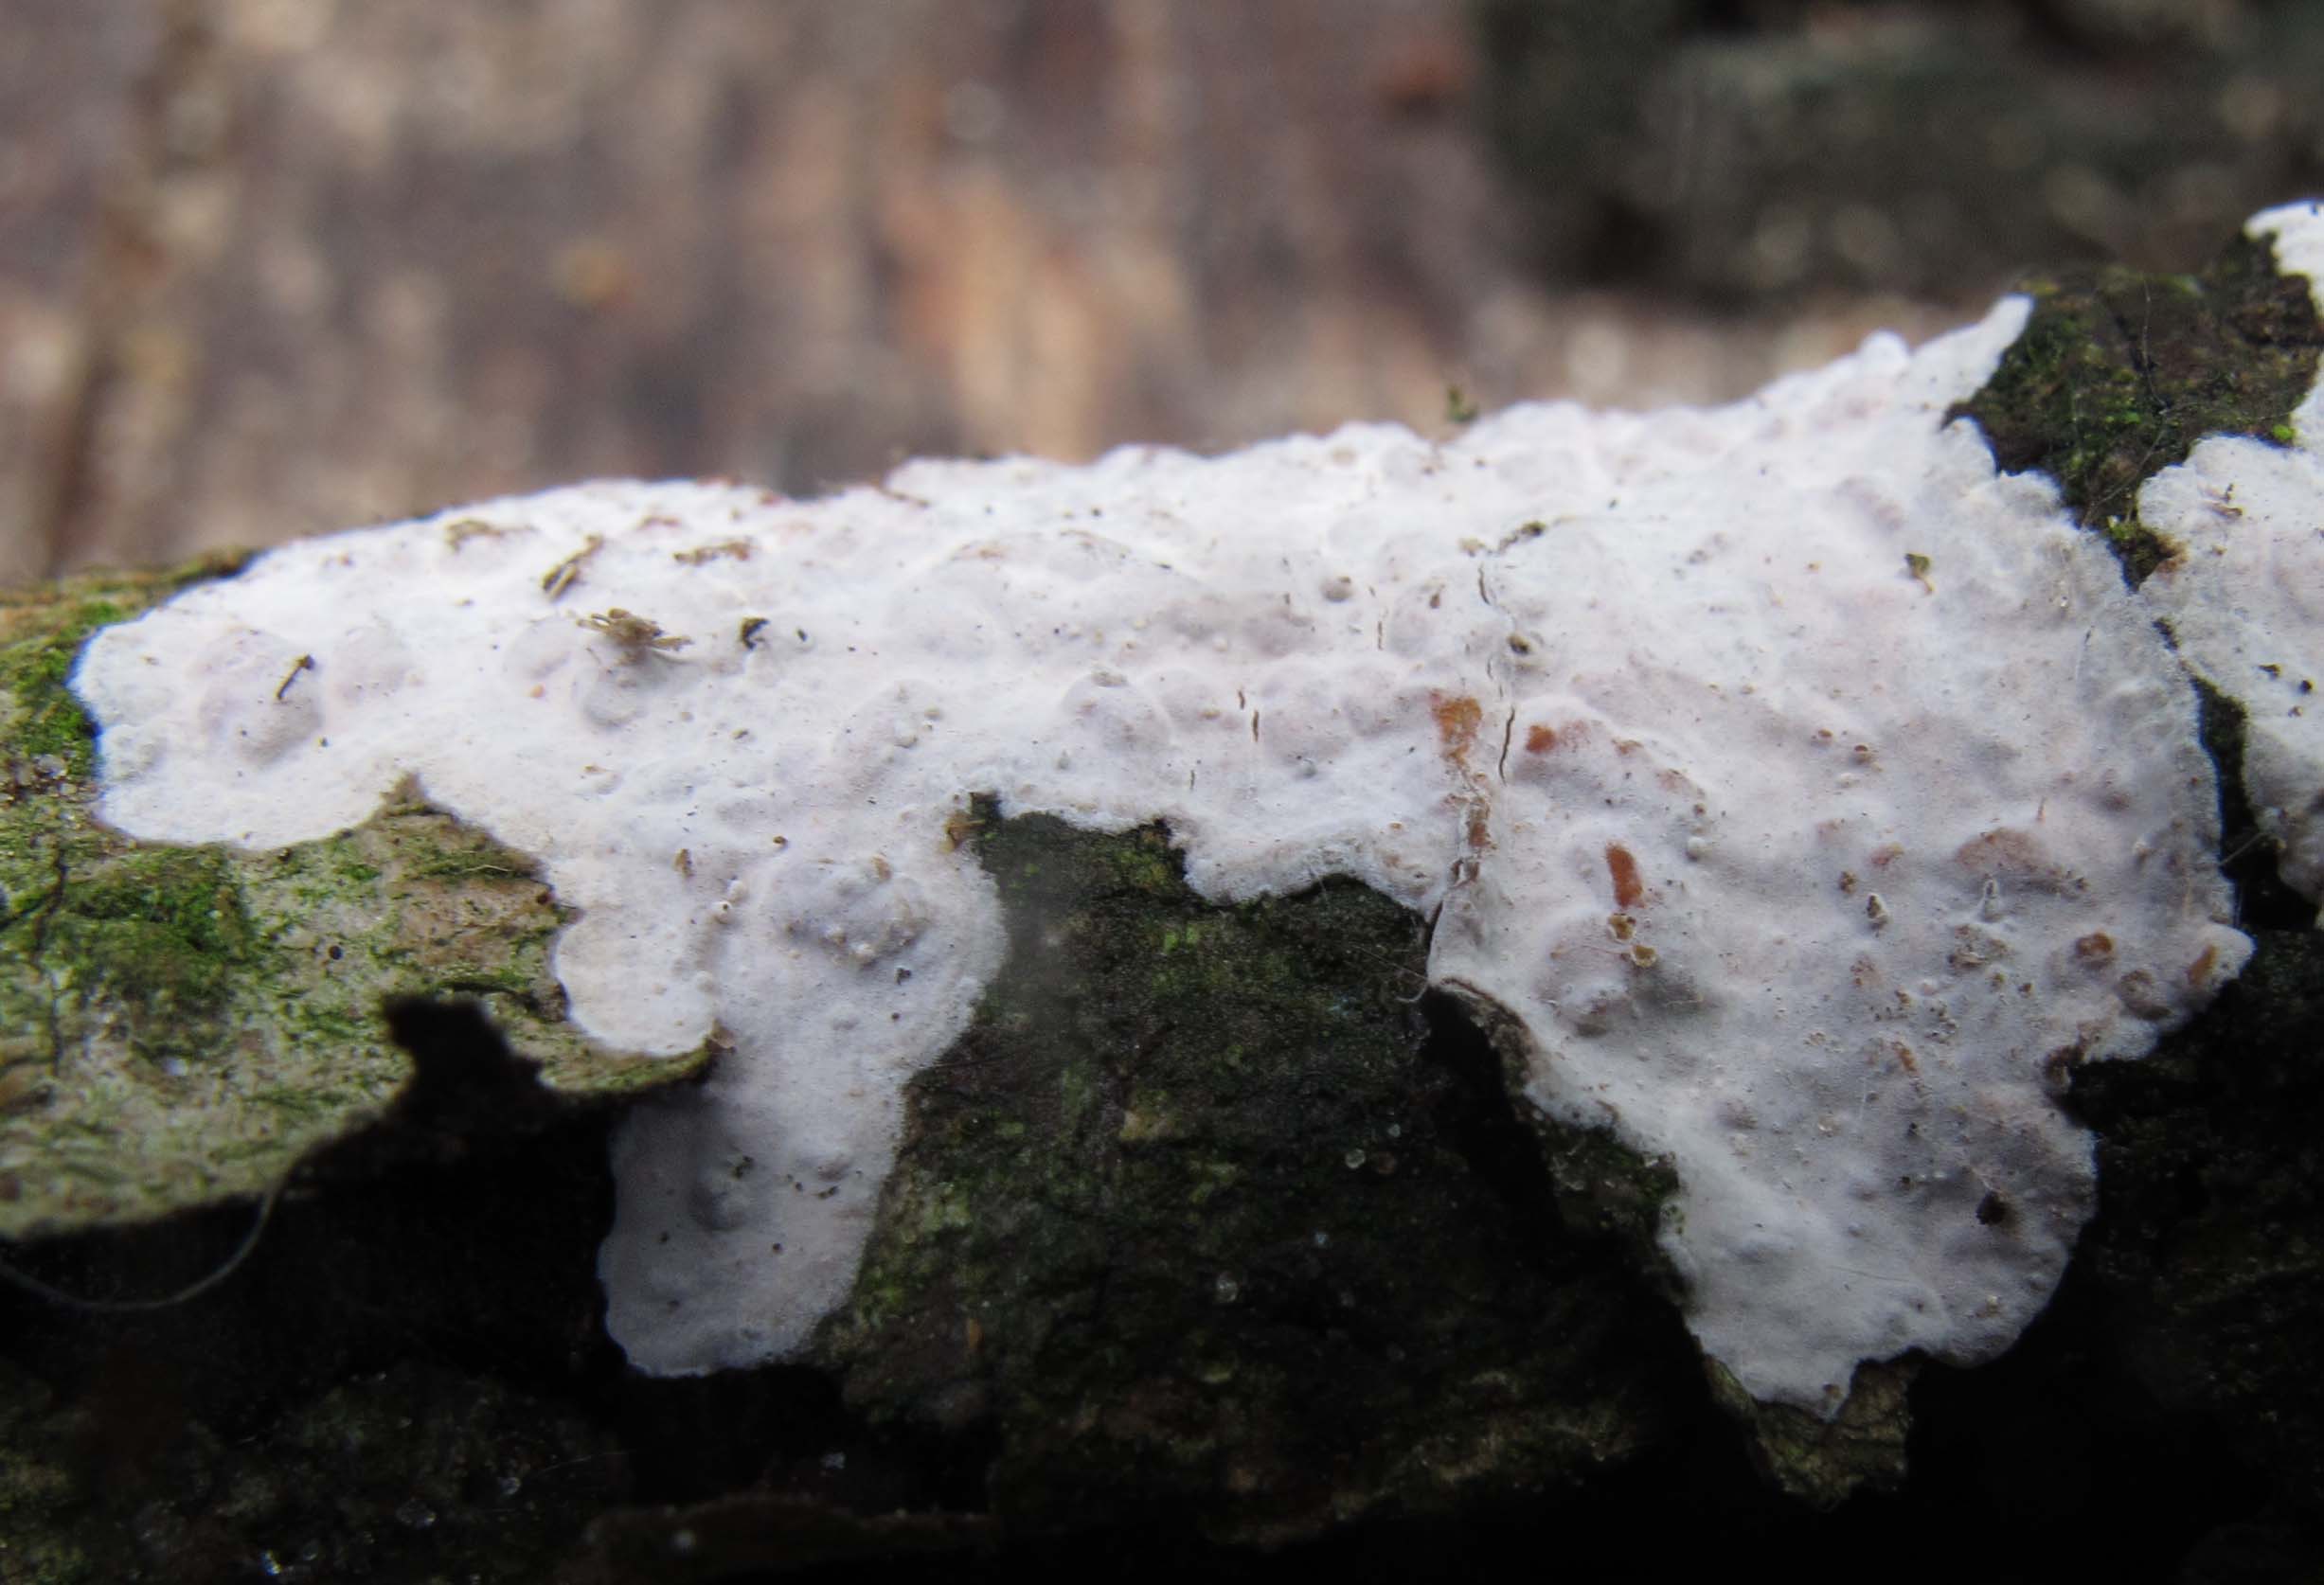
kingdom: Fungi
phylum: Basidiomycota
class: Agaricomycetes
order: Russulales
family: Peniophoraceae
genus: Peniophora
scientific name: Peniophora polygonia
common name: polygon-voksskind
